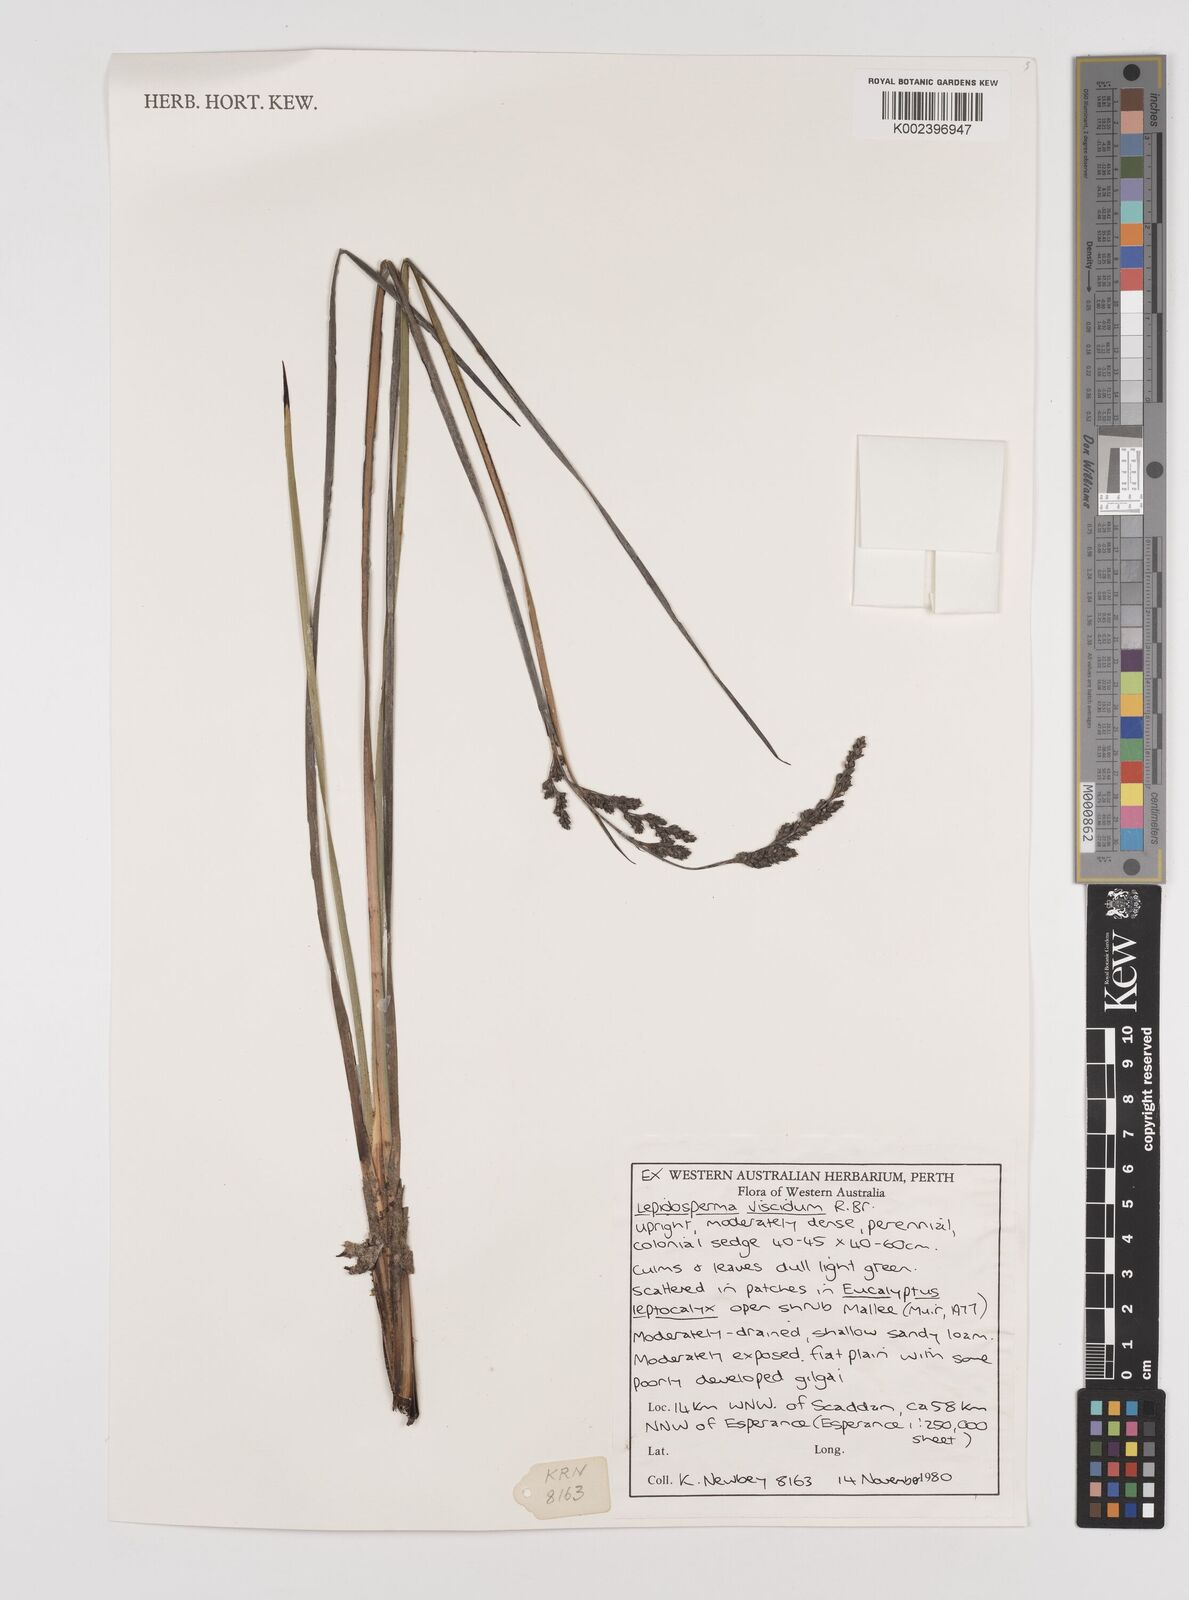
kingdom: Plantae
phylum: Tracheophyta
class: Liliopsida
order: Poales
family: Cyperaceae
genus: Lepidosperma
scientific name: Lepidosperma viscidum
